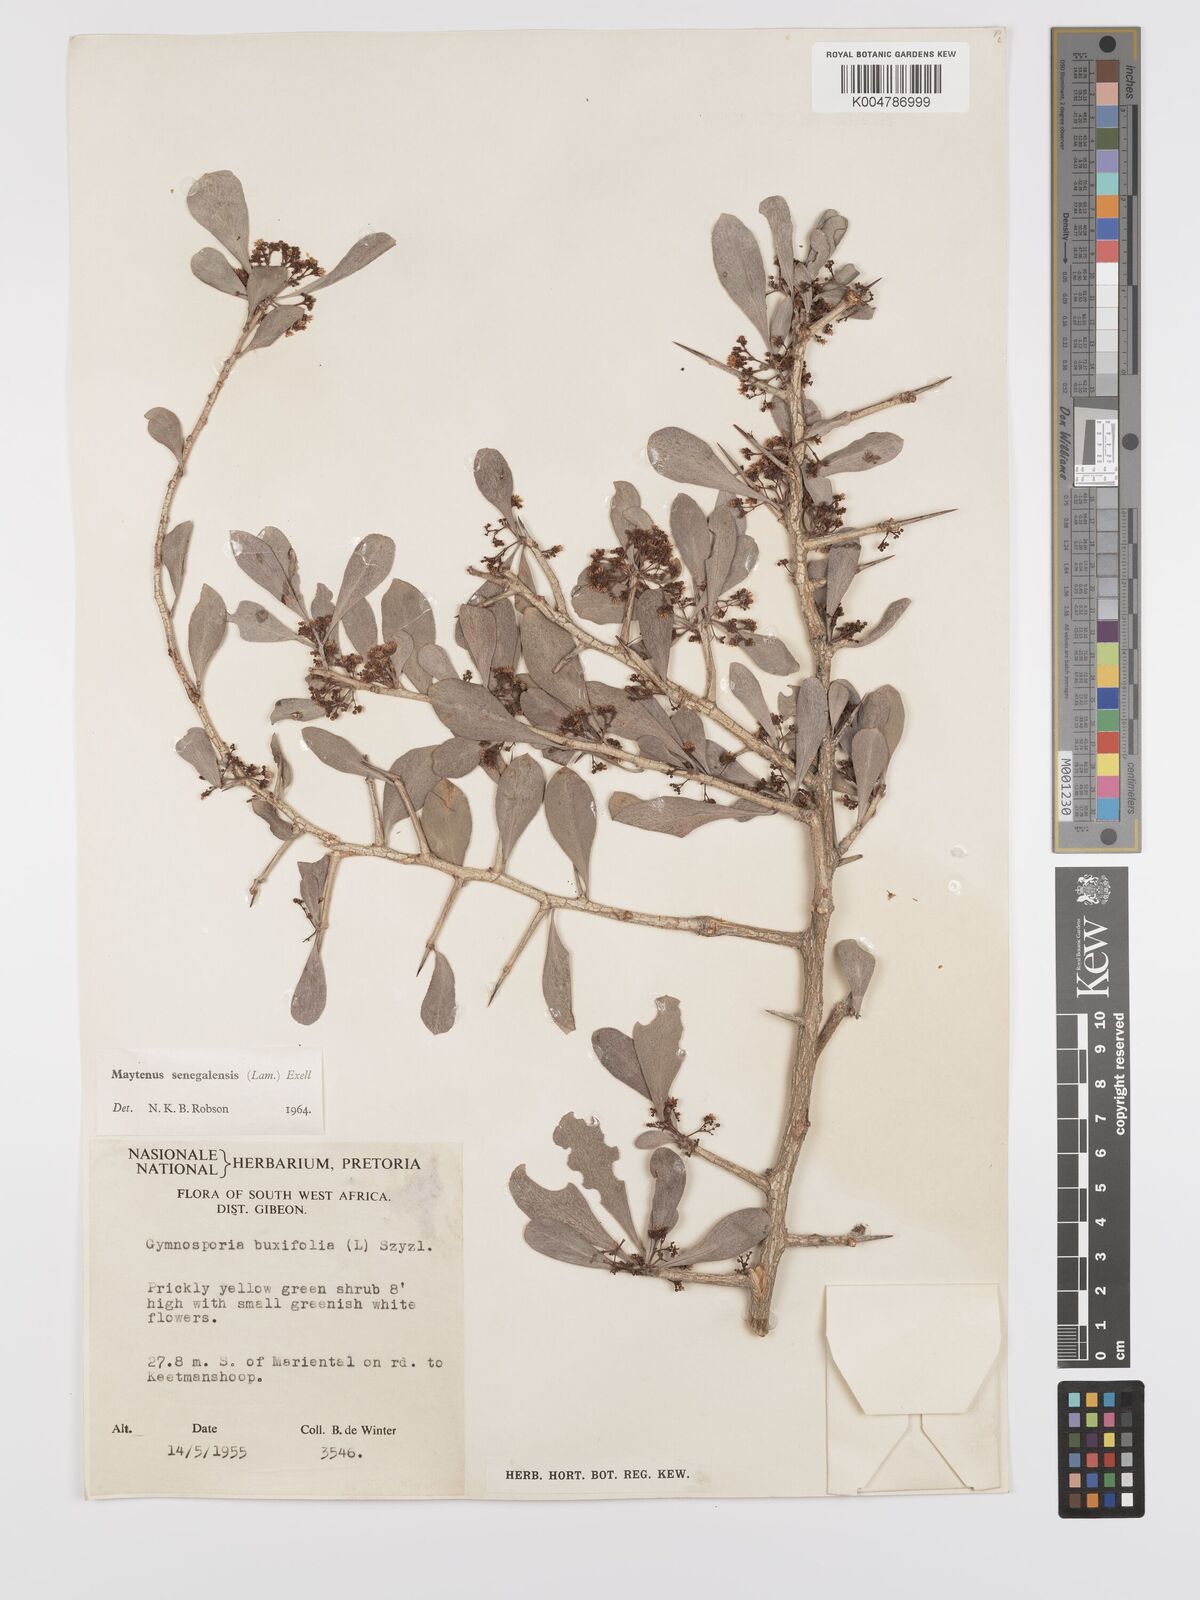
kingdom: Plantae
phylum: Tracheophyta
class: Magnoliopsida
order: Celastrales
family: Celastraceae
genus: Gymnosporia
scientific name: Gymnosporia senegalensis
